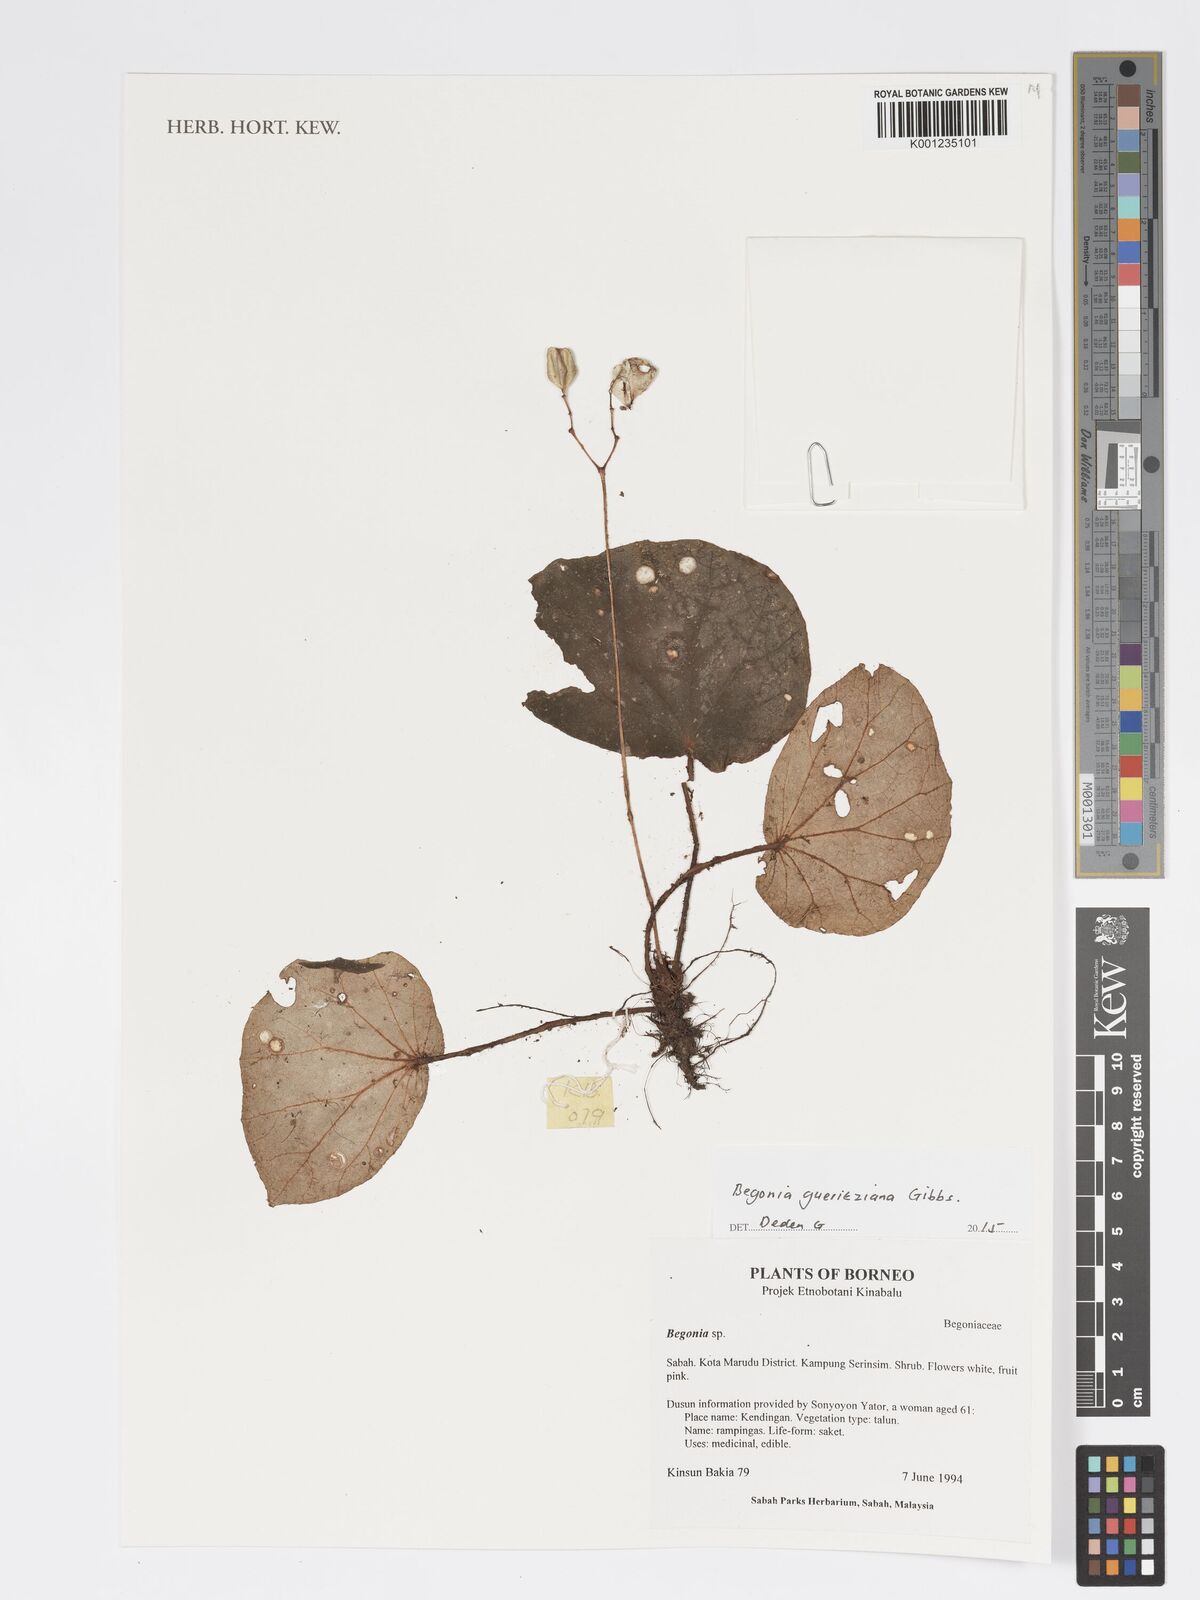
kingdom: Plantae
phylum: Tracheophyta
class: Magnoliopsida
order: Cucurbitales
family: Begoniaceae
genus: Begonia
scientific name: Begonia gueritziana
